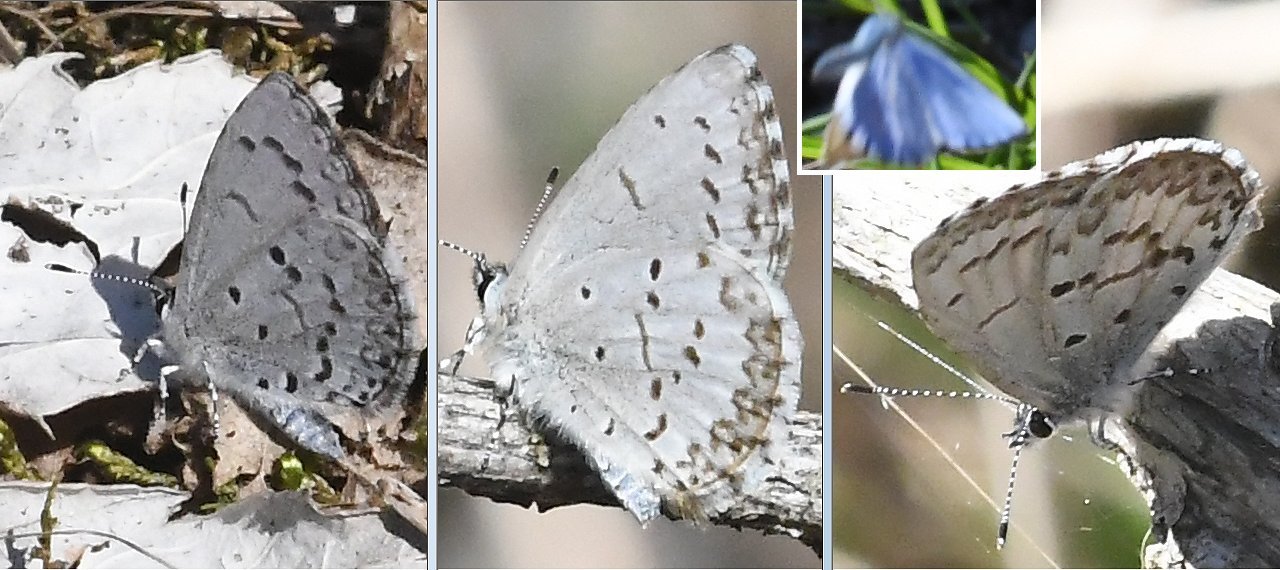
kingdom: Animalia
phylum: Arthropoda
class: Insecta
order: Lepidoptera
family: Lycaenidae
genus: Celastrina
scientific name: Celastrina lucia
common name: Northern Spring Azure
